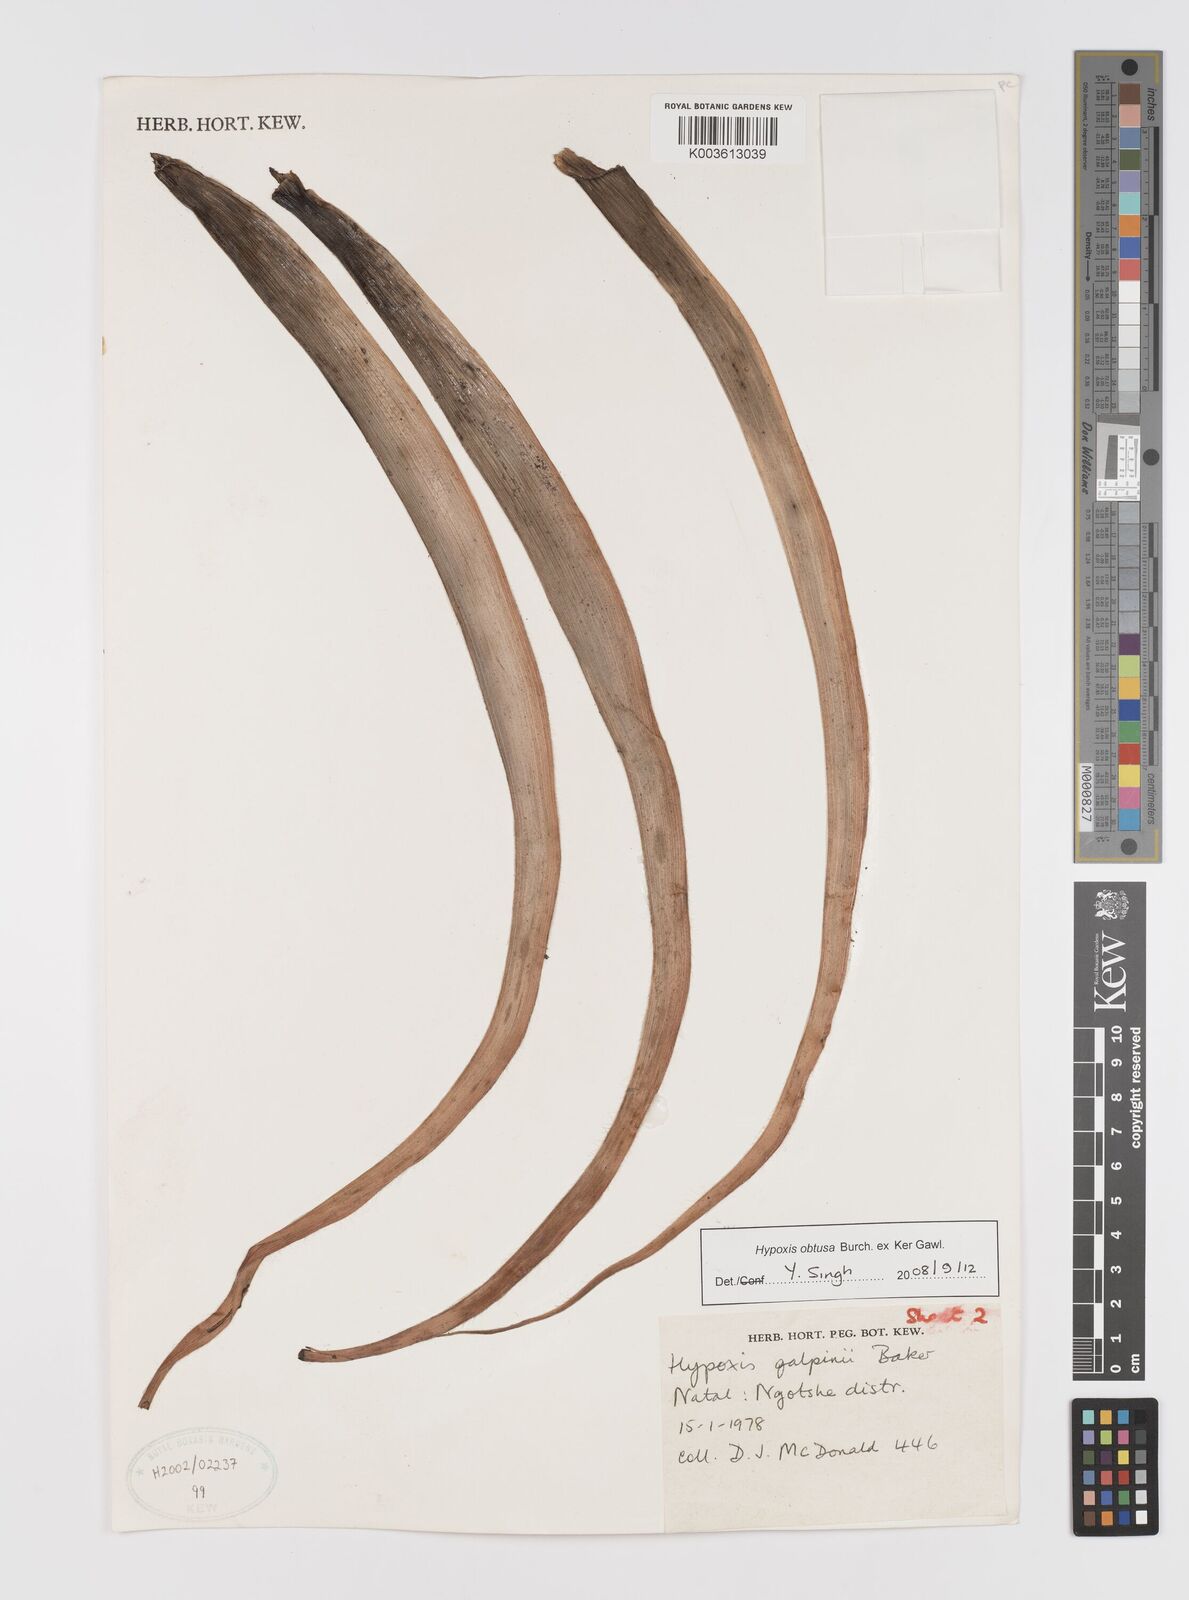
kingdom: Plantae
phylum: Tracheophyta
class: Liliopsida
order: Asparagales
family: Hypoxidaceae
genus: Hypoxis
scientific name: Hypoxis obtusa
